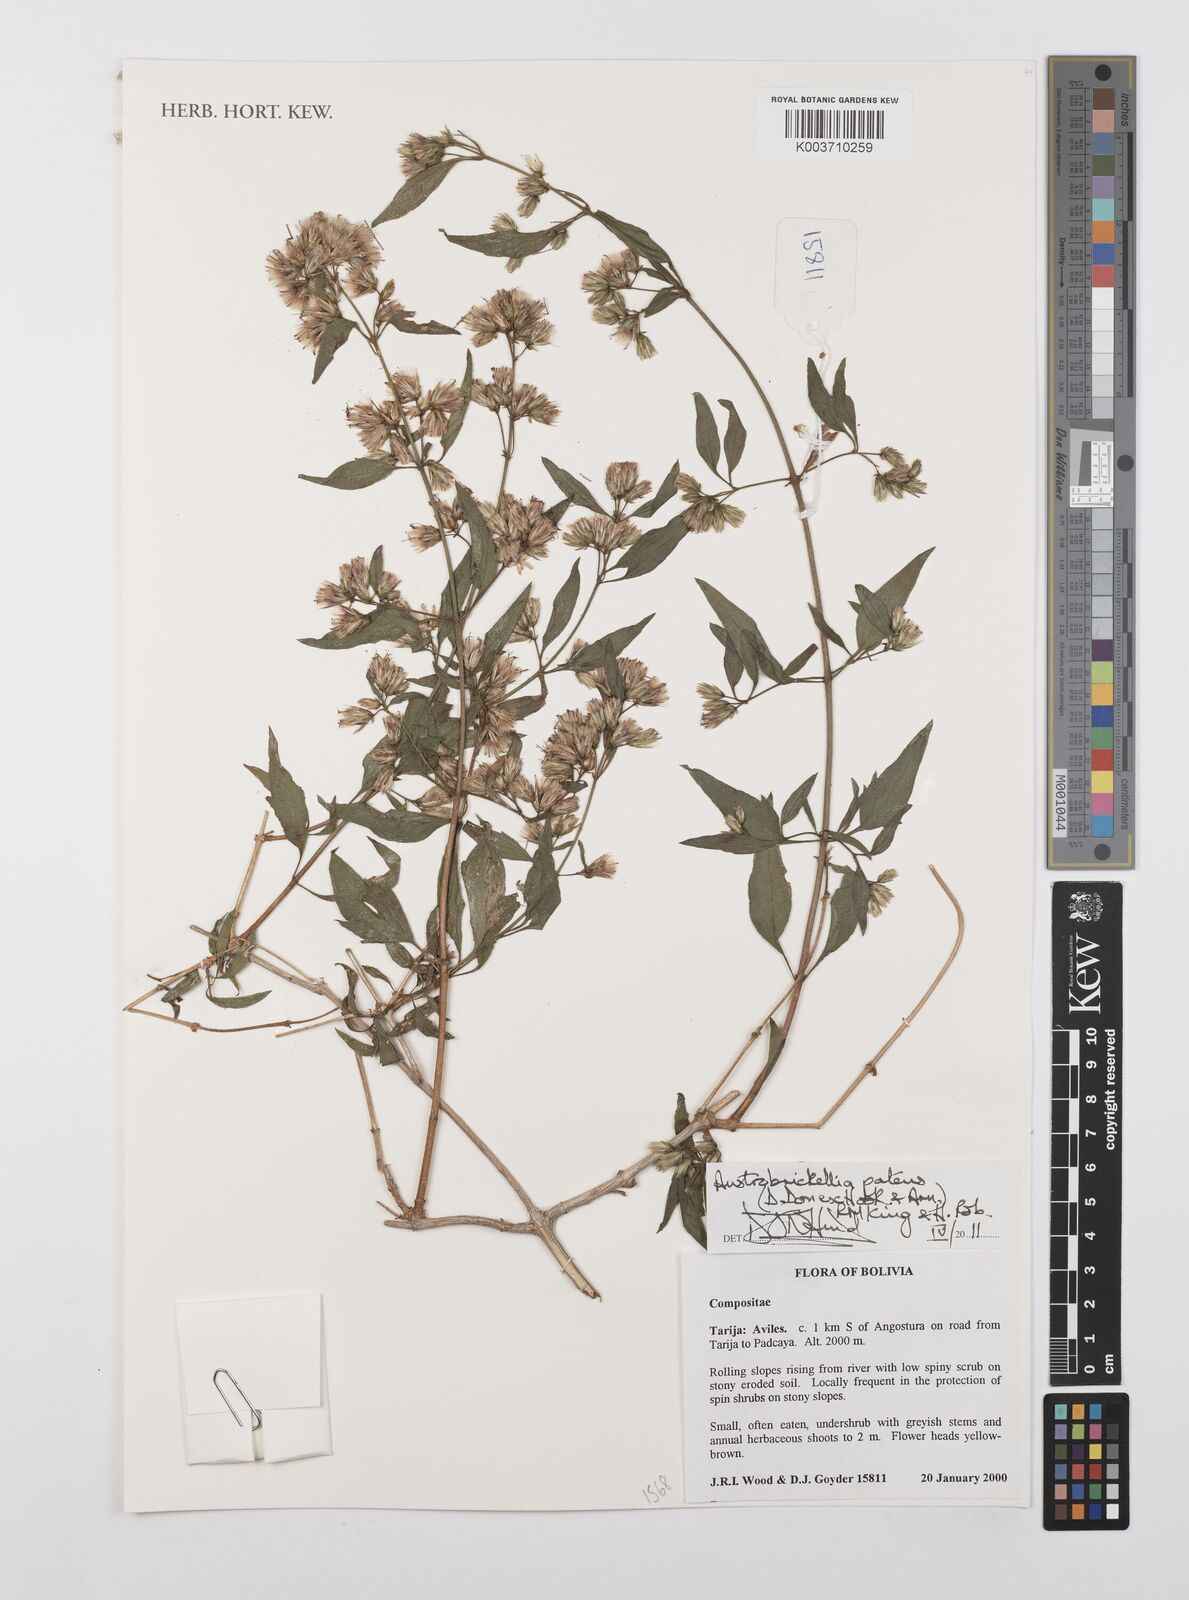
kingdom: Plantae
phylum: Tracheophyta
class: Magnoliopsida
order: Asterales
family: Asteraceae
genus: Austrobrickellia
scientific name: Austrobrickellia patens
